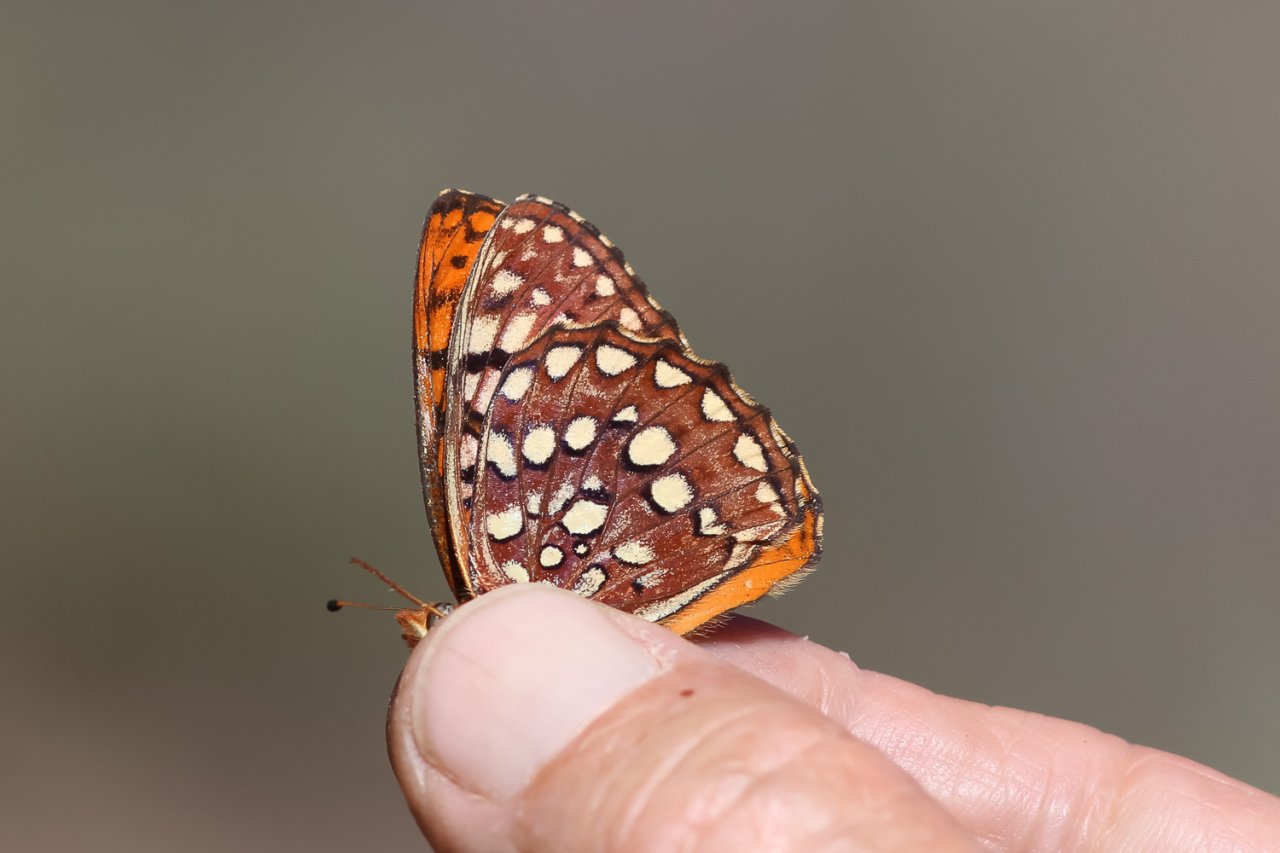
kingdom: Animalia
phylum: Arthropoda
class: Insecta
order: Lepidoptera
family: Nymphalidae
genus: Speyeria
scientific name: Speyeria hydaspe
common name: Hydaspe Fritillary
